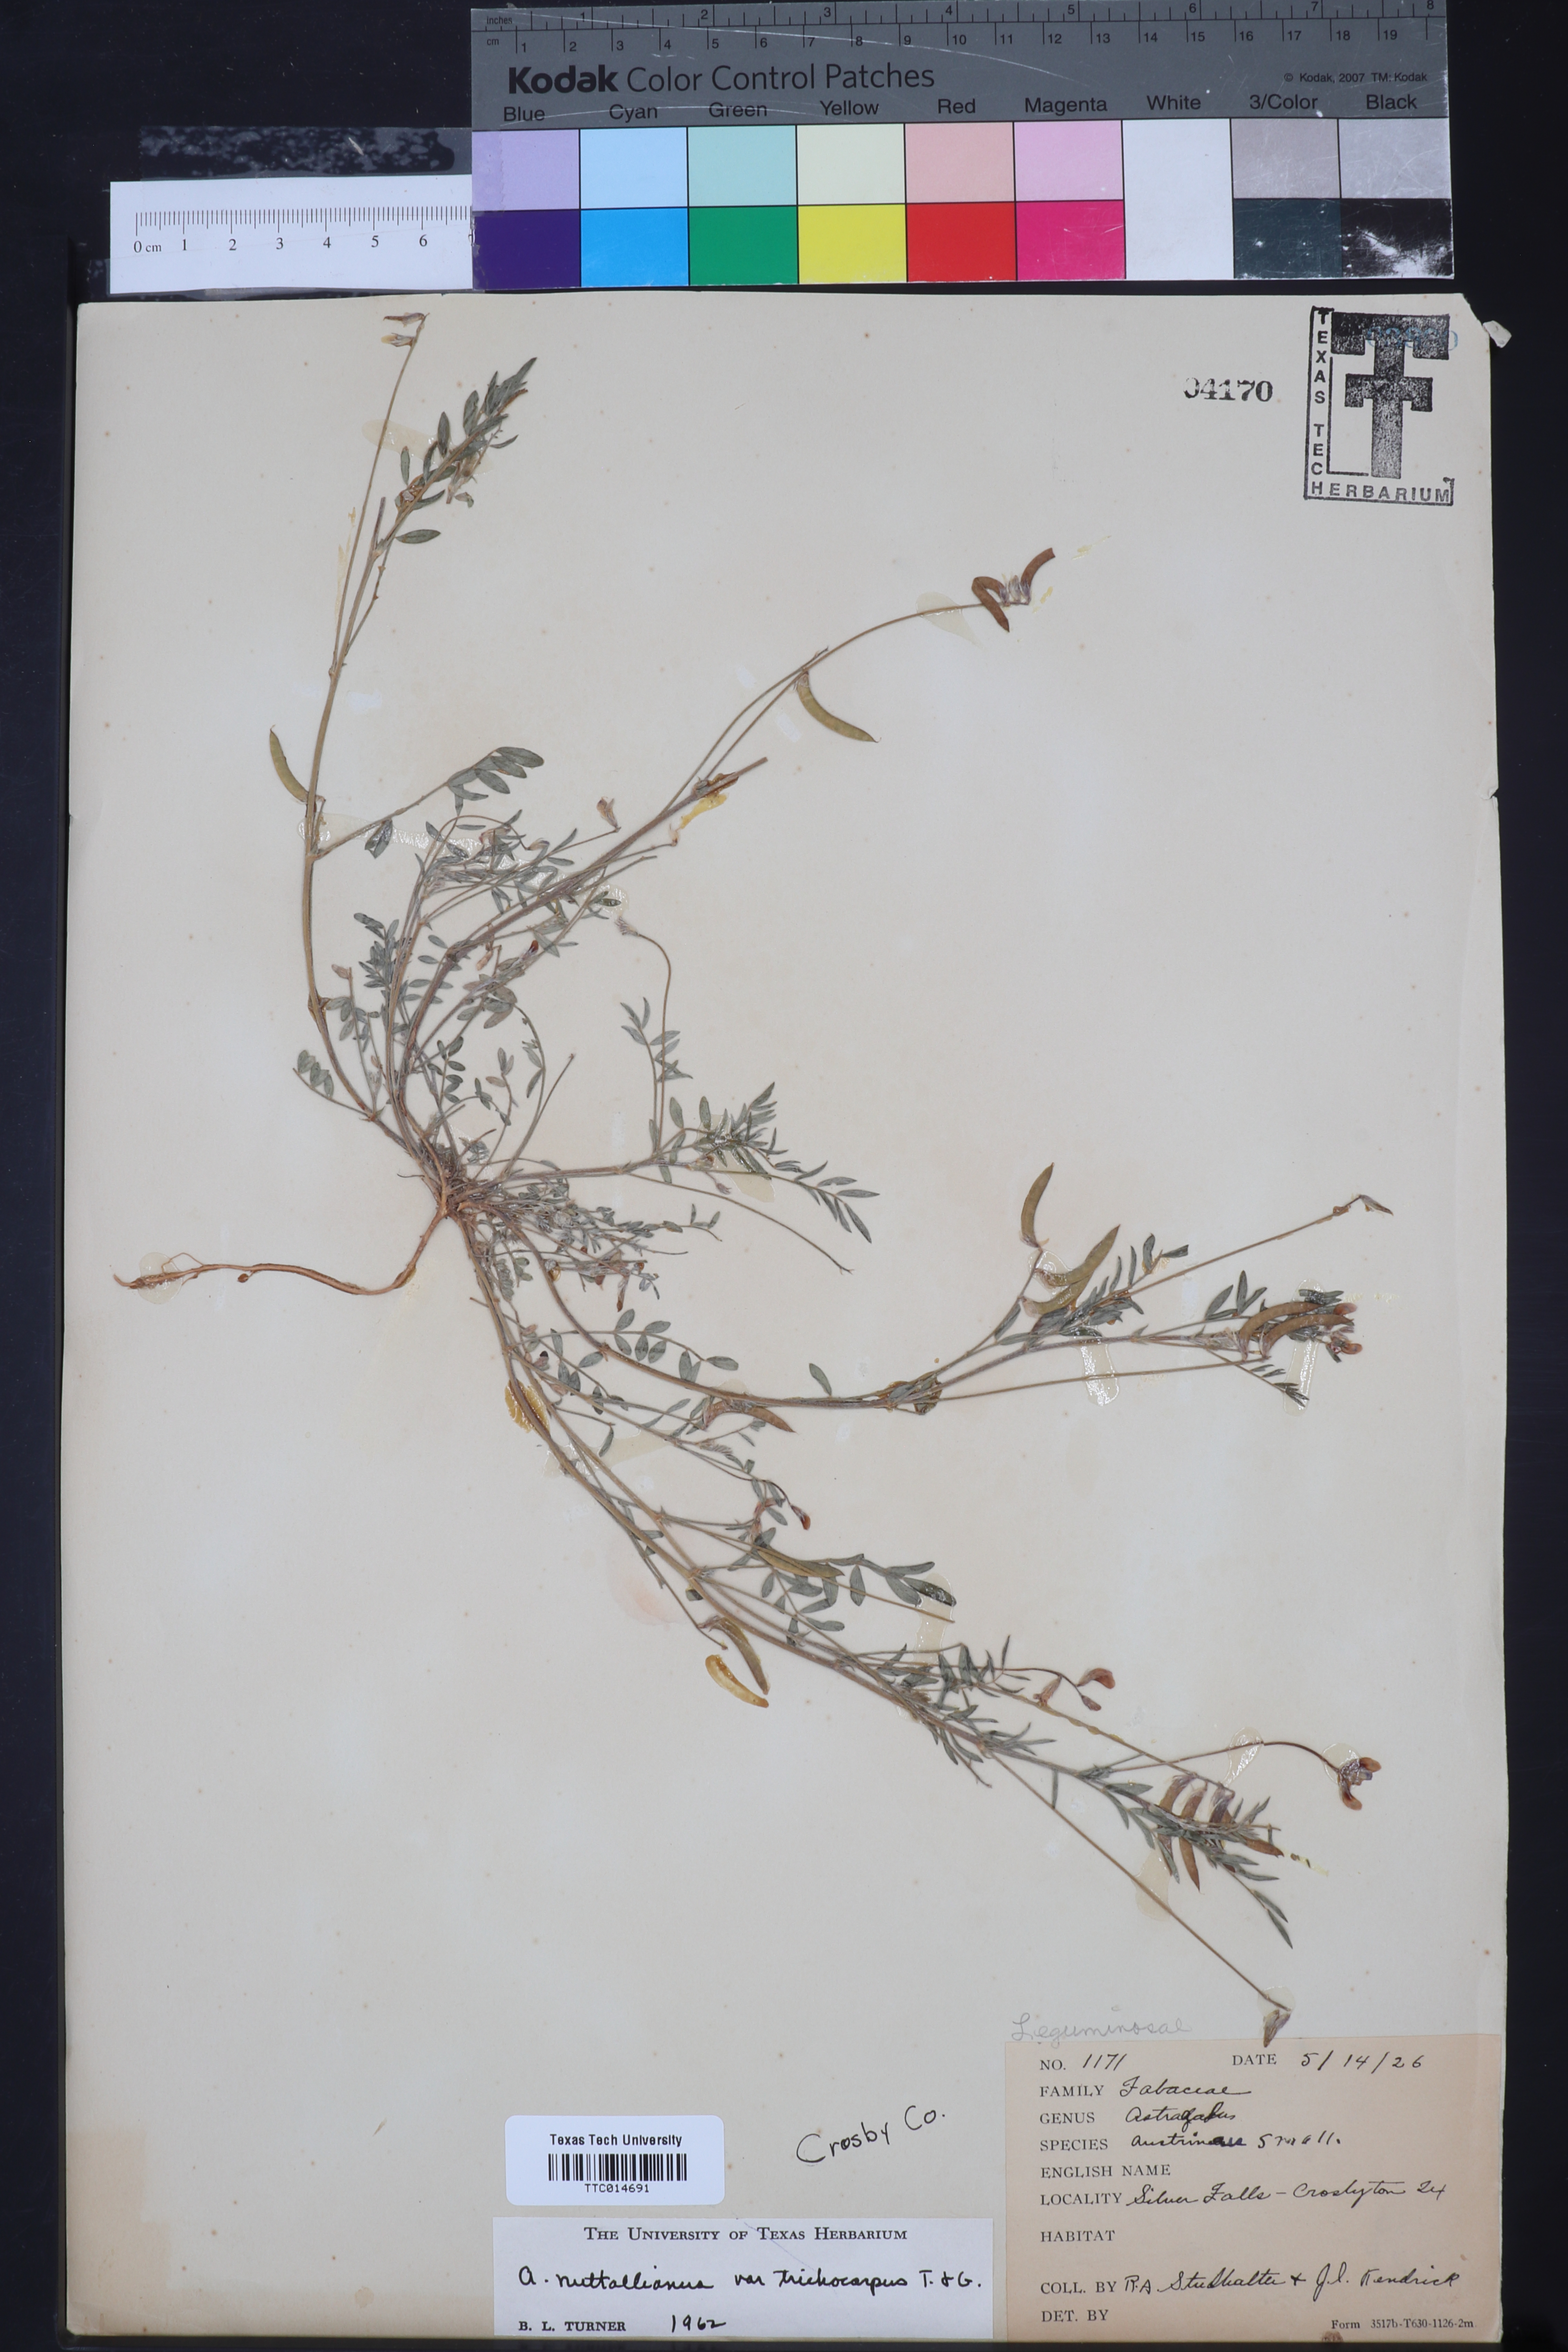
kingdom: Plantae
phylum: Tracheophyta
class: Magnoliopsida
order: Fabales
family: Fabaceae
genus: Astragalus
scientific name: Astragalus nuttallianus
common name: Smallflowered milkvetch
